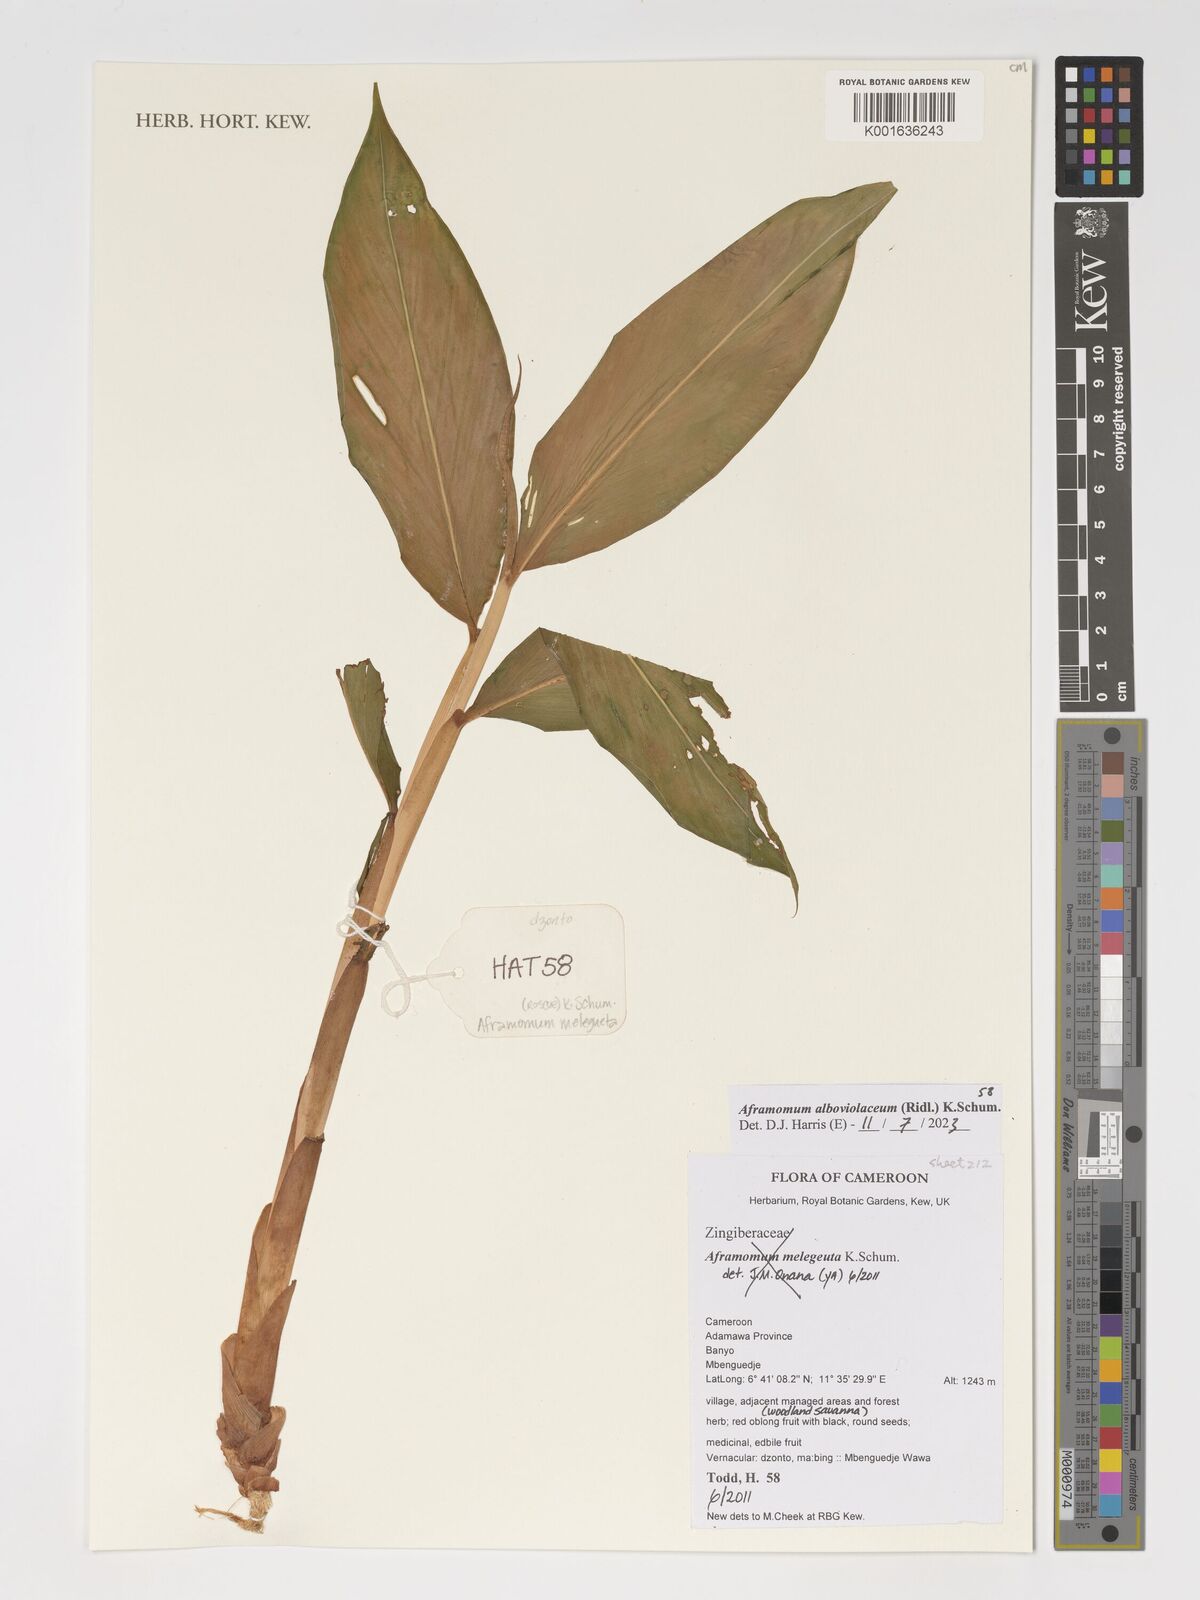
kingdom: Plantae
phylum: Tracheophyta
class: Liliopsida
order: Zingiberales
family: Zingiberaceae
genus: Aframomum
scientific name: Aframomum alboviolaceum
